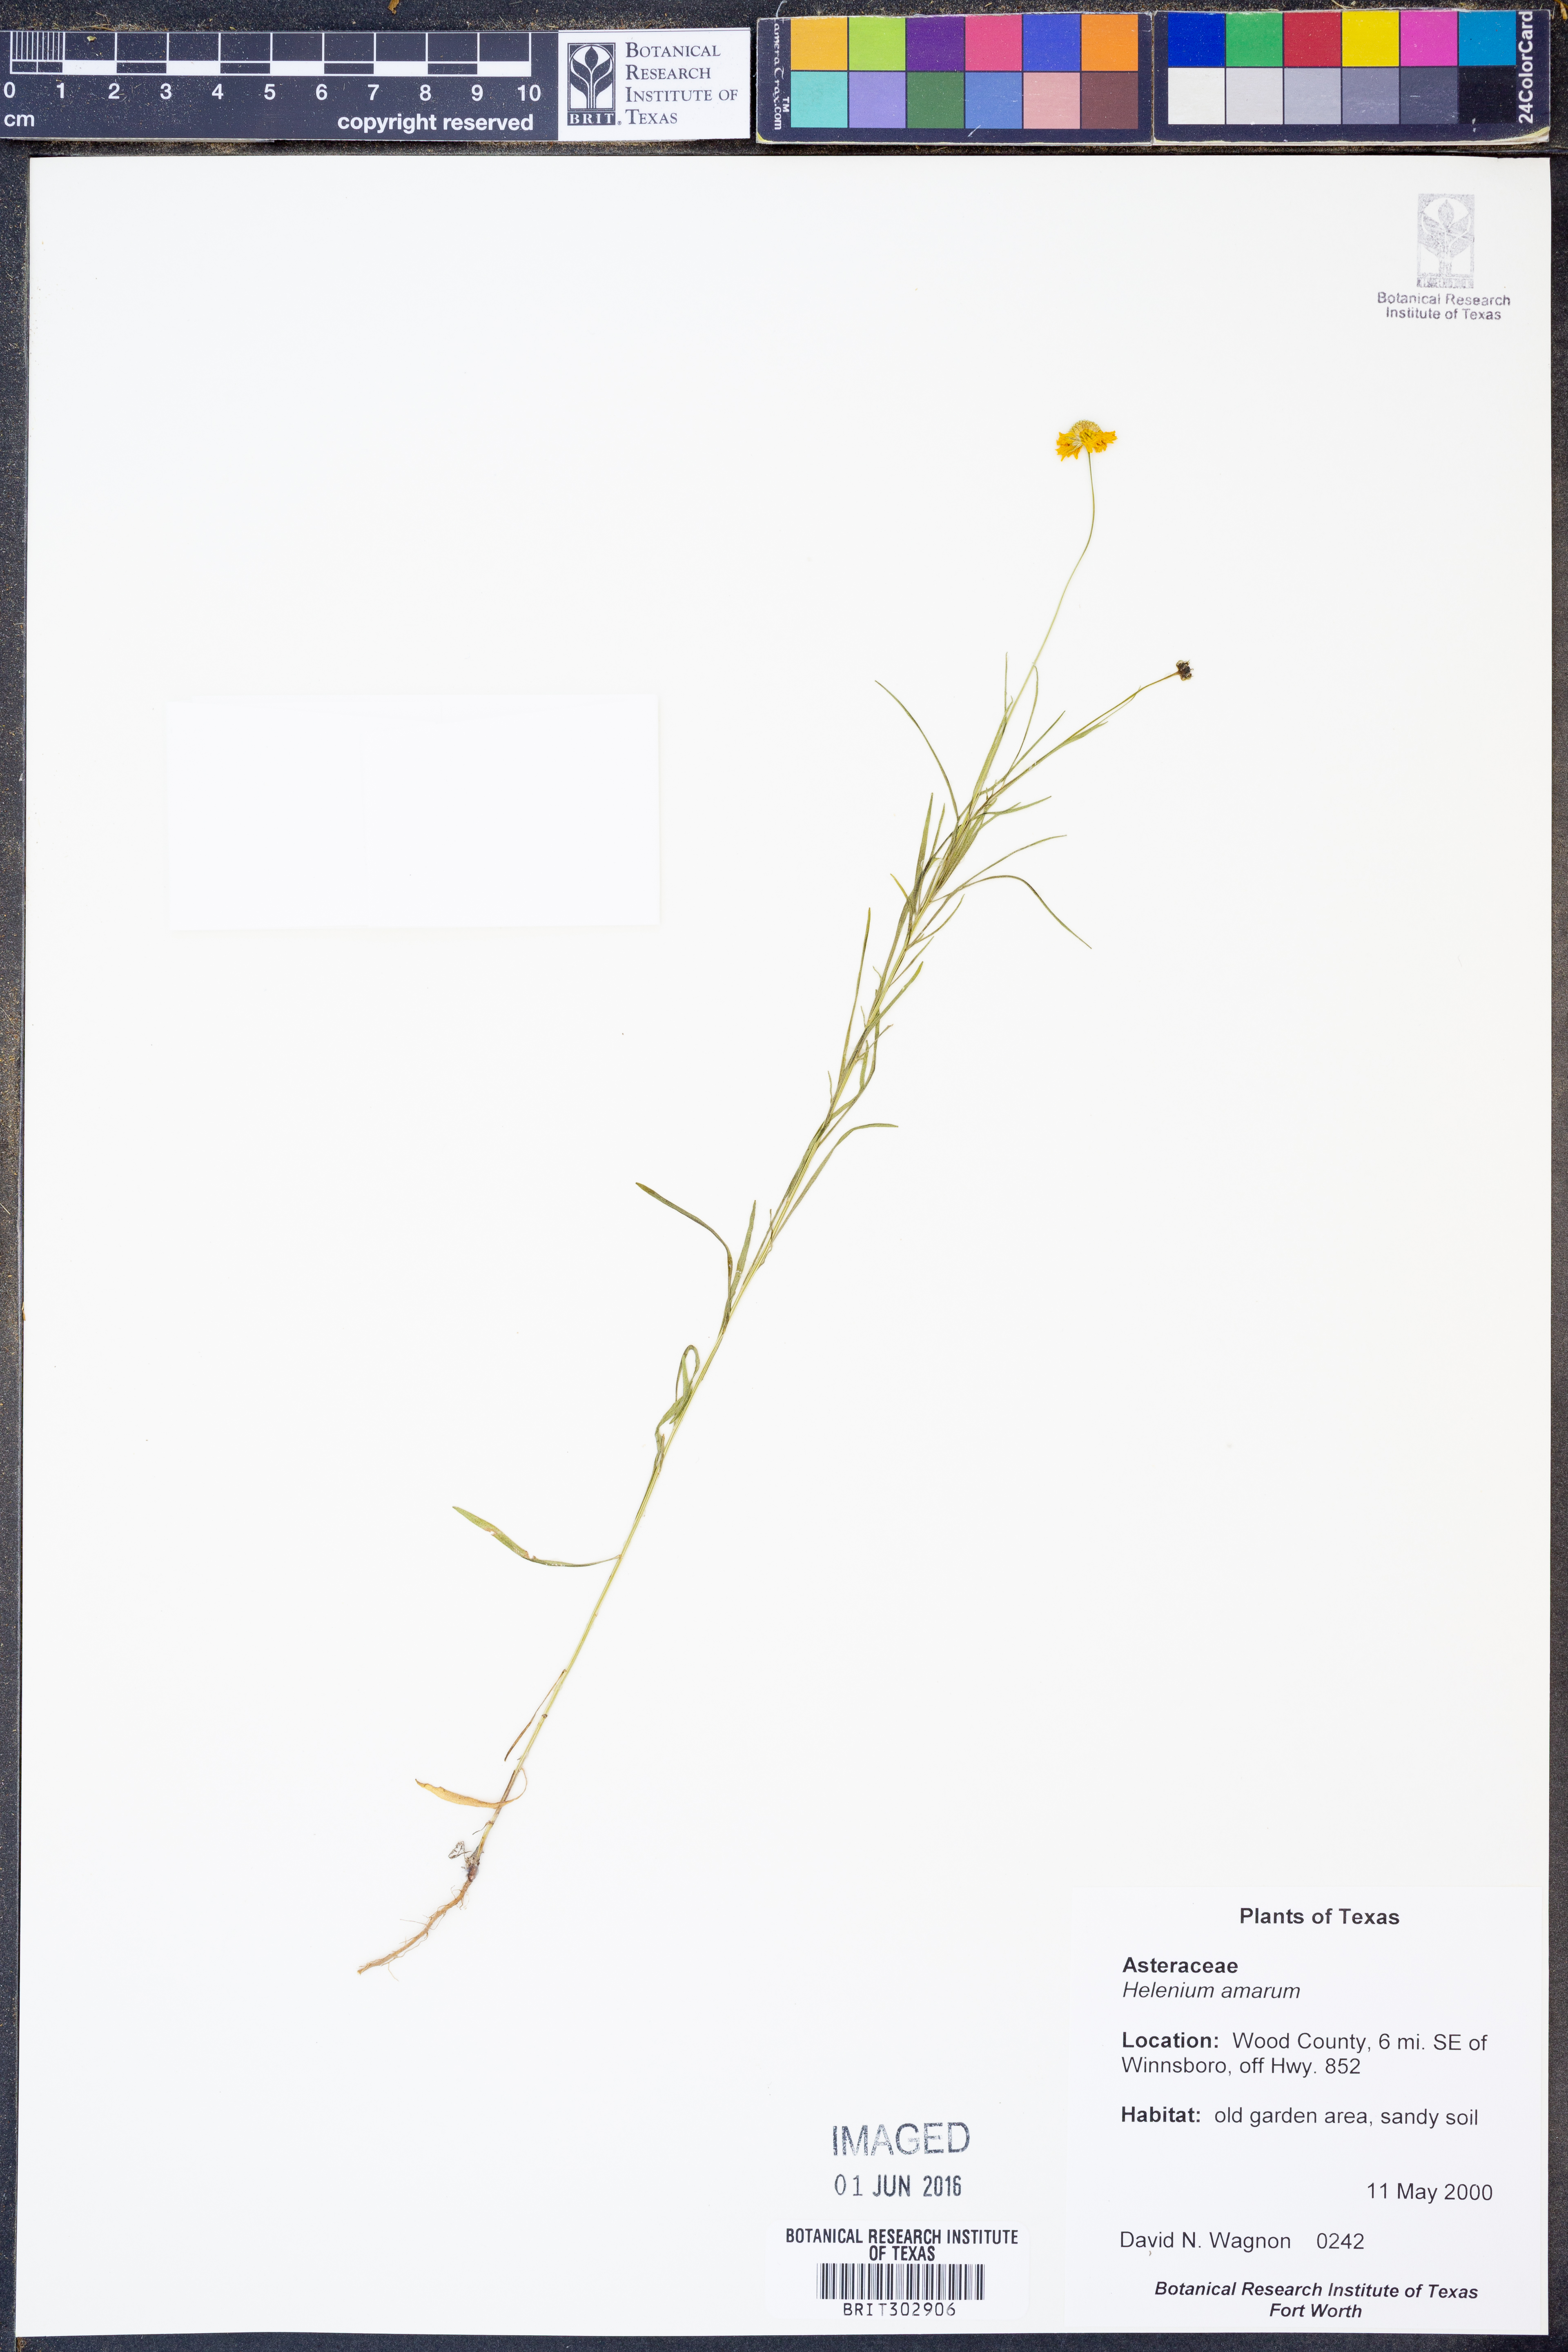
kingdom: Plantae
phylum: Tracheophyta
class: Magnoliopsida
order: Asterales
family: Asteraceae
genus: Helenium
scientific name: Helenium amarum
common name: Bitter sneezeweed
